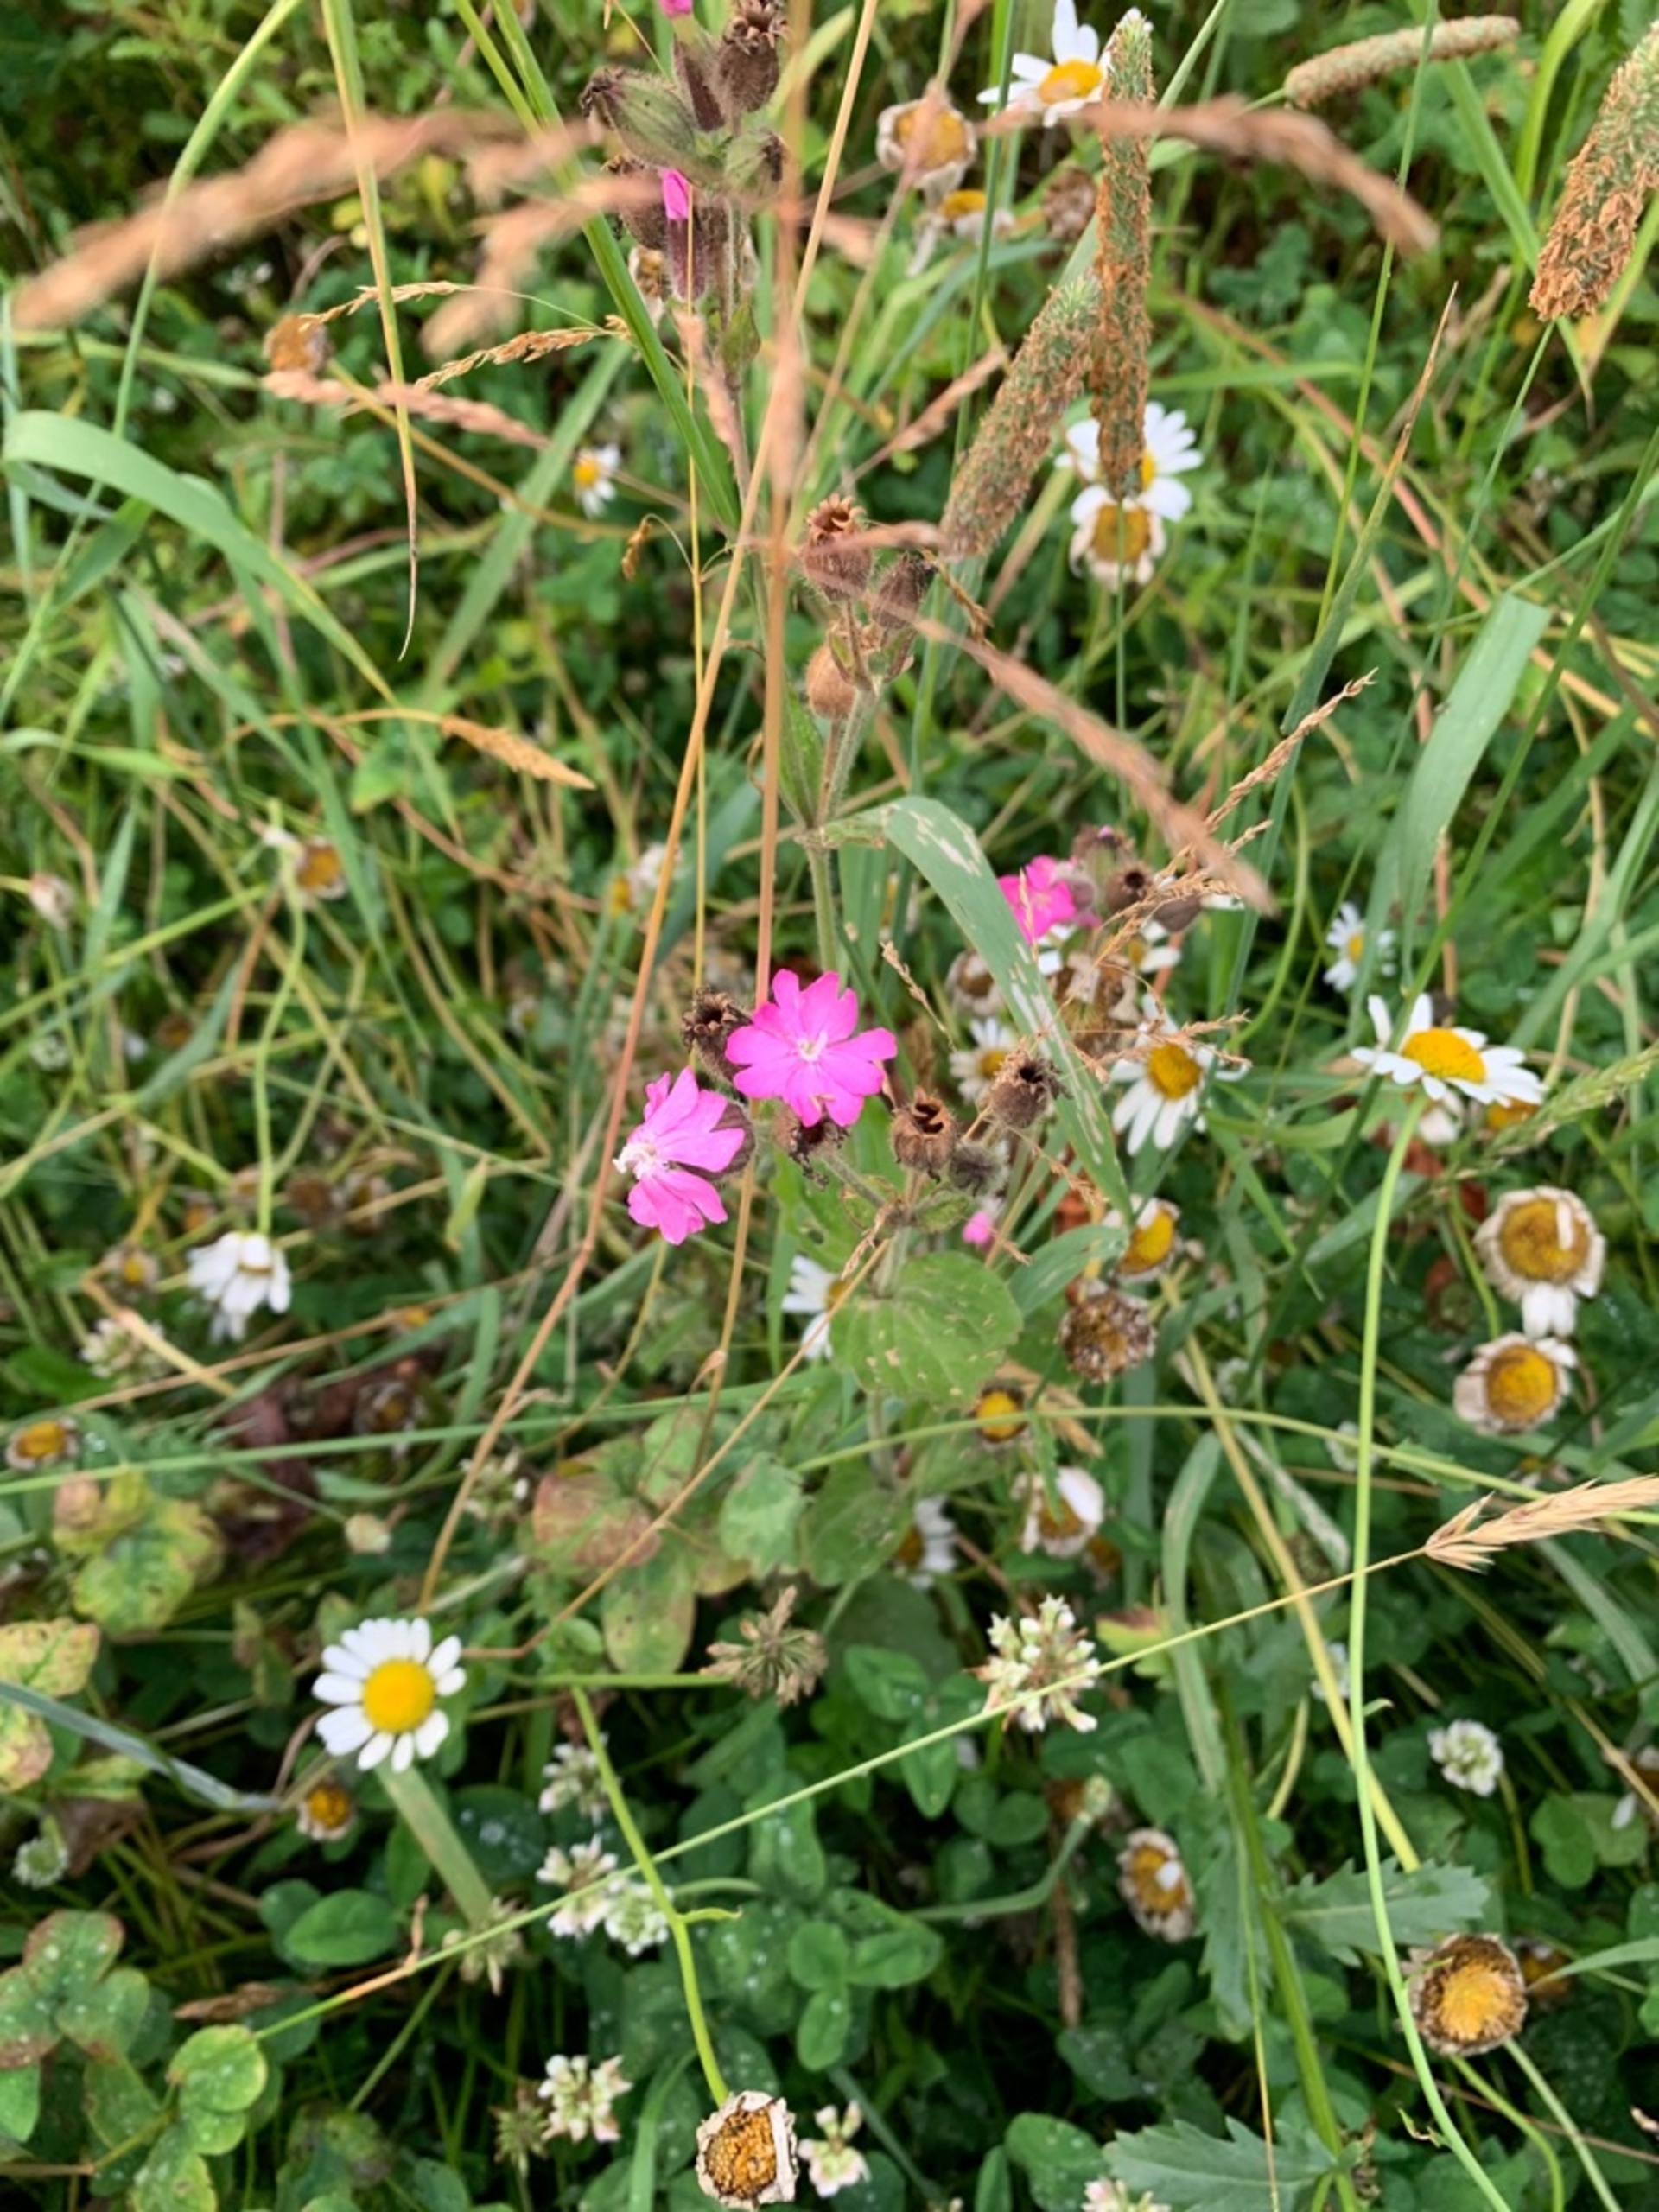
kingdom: Plantae
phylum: Tracheophyta
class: Magnoliopsida
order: Caryophyllales
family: Caryophyllaceae
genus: Silene
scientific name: Silene dioica
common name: Dagpragtstjerne
